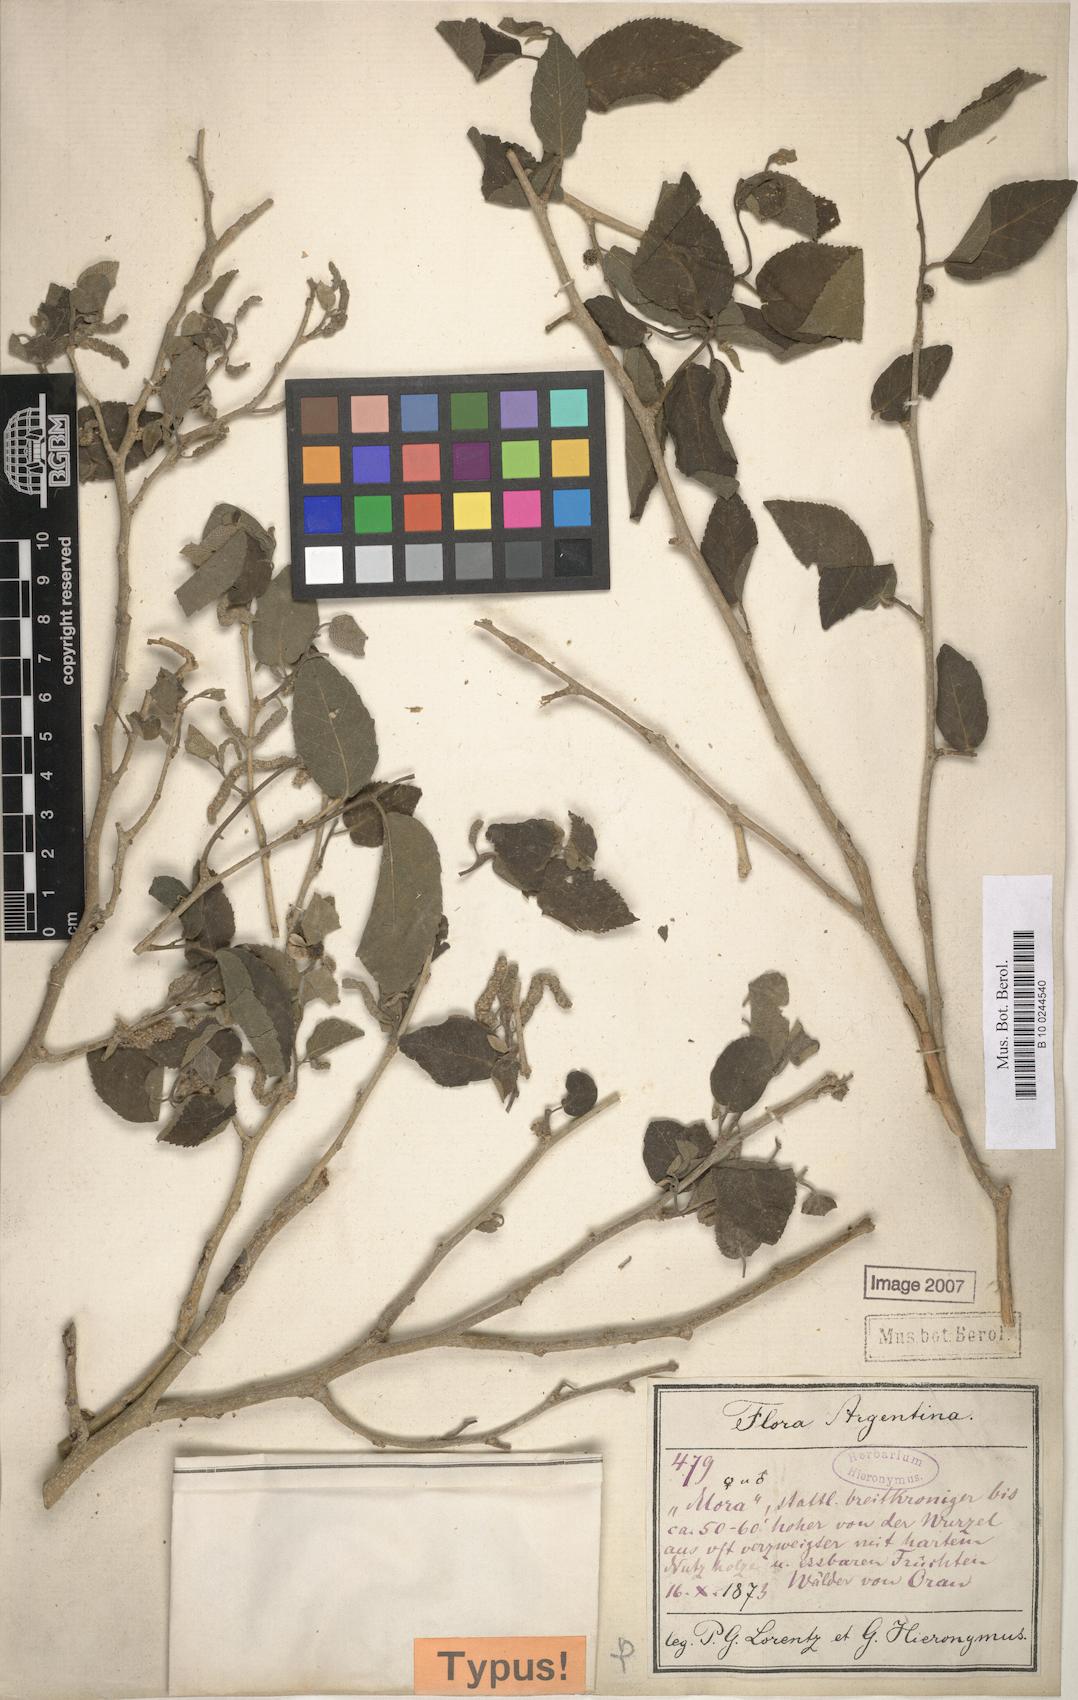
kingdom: Plantae
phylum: Tracheophyta
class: Magnoliopsida
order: Rosales
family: Moraceae
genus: Maclura
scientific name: Maclura tinctoria
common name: Old fustic
